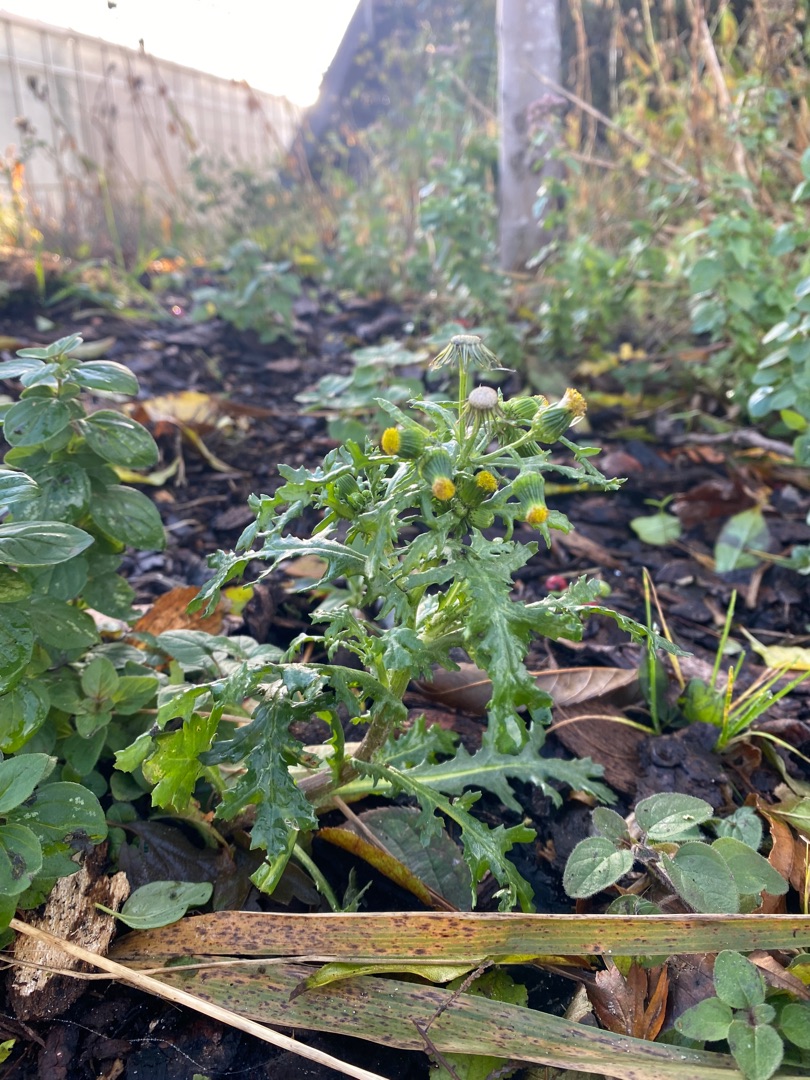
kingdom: Plantae
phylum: Tracheophyta
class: Magnoliopsida
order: Asterales
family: Asteraceae
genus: Senecio
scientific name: Senecio vulgaris
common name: Almindelig brandbæger
